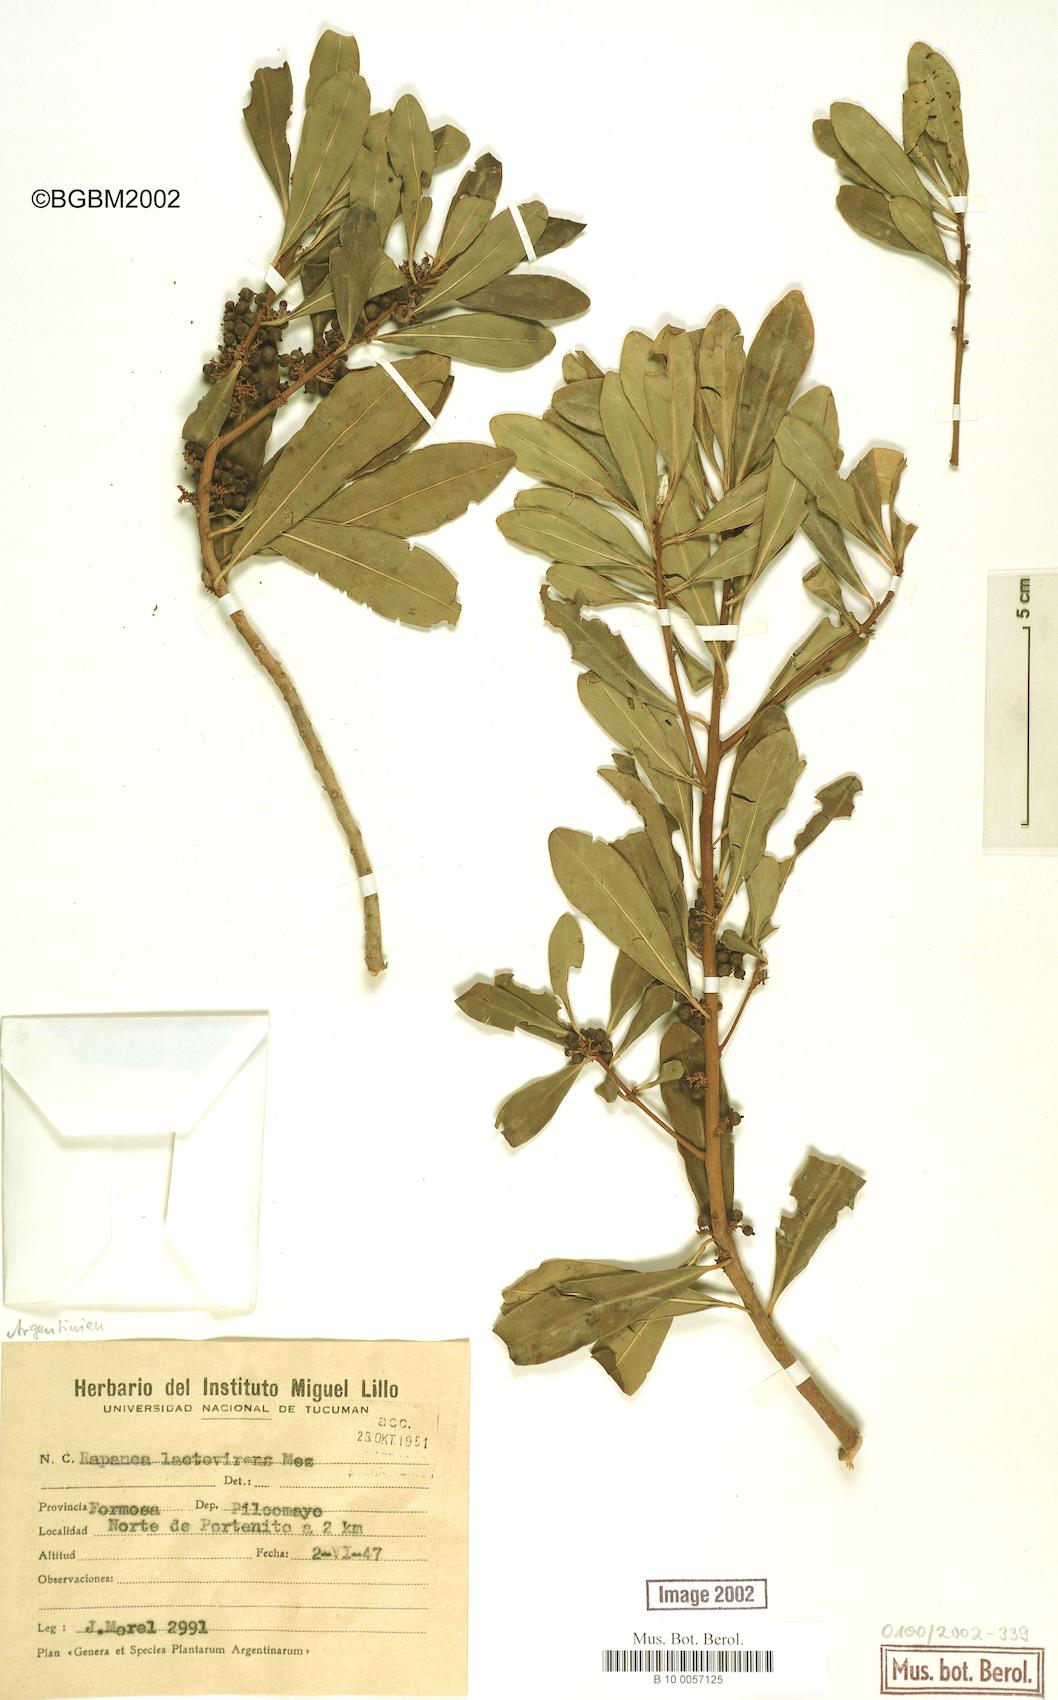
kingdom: Plantae
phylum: Tracheophyta
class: Magnoliopsida
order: Ericales
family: Primulaceae
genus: Myrsine
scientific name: Myrsine laetevirens
